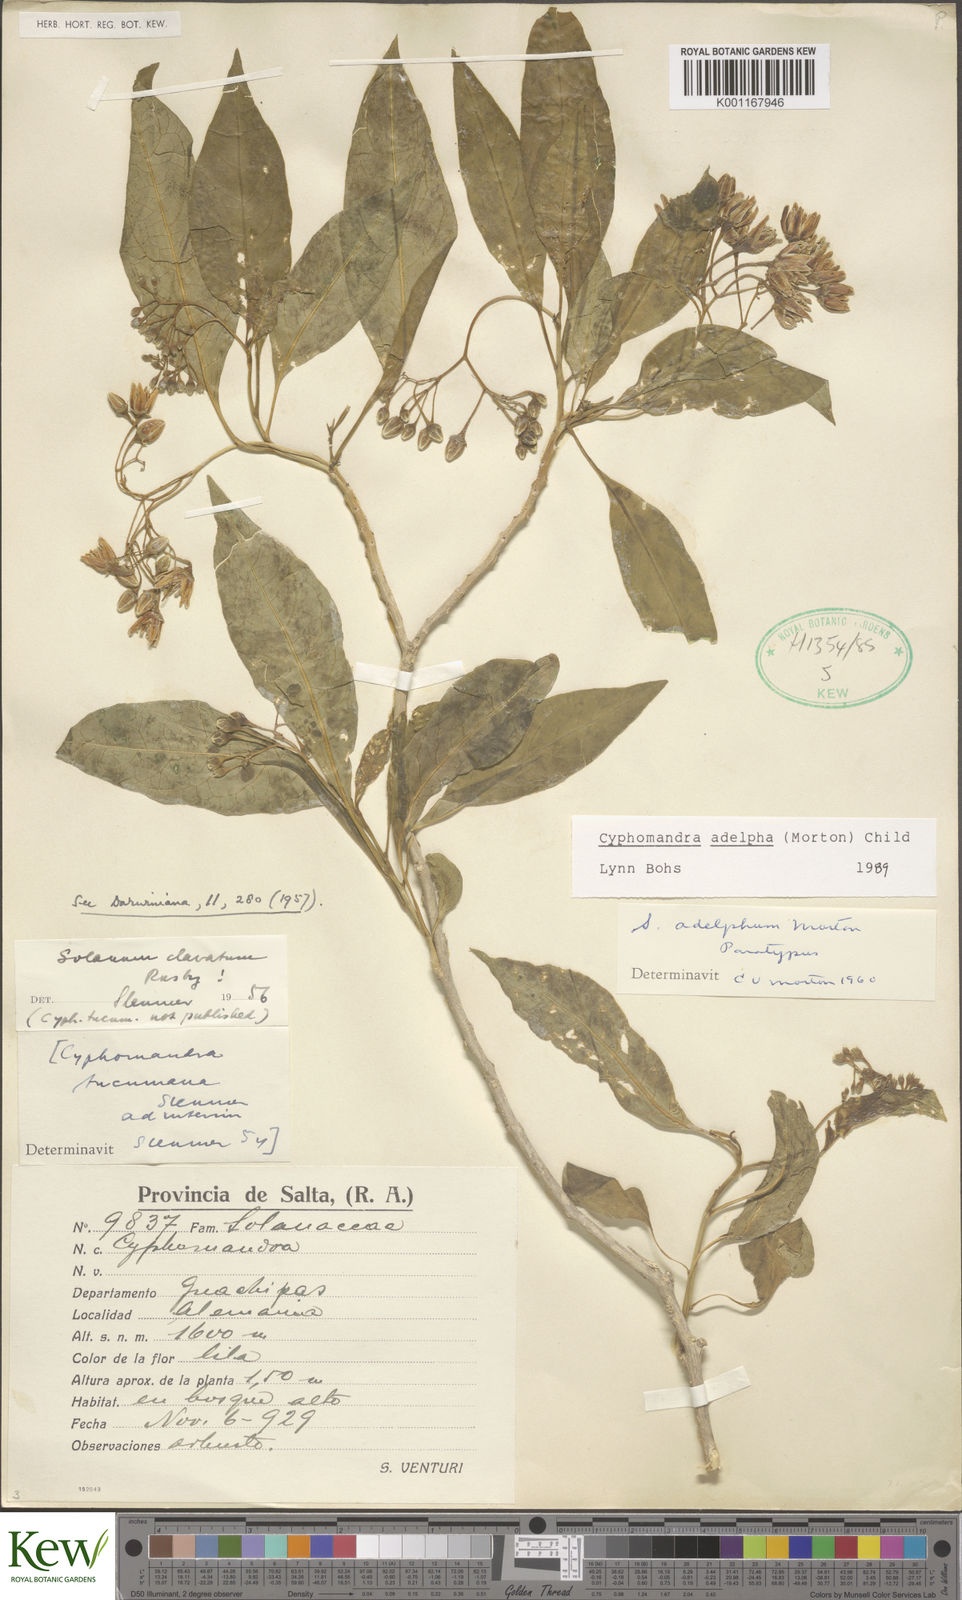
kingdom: Plantae
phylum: Tracheophyta
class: Magnoliopsida
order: Solanales
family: Solanaceae
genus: Solanum
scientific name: Solanum confusum
